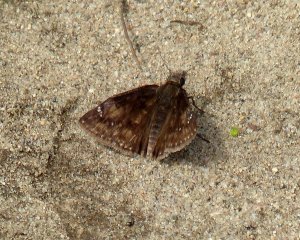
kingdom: Animalia
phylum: Arthropoda
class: Insecta
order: Lepidoptera
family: Hesperiidae
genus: Gesta
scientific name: Gesta
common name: Wild Indigo Duskywing
